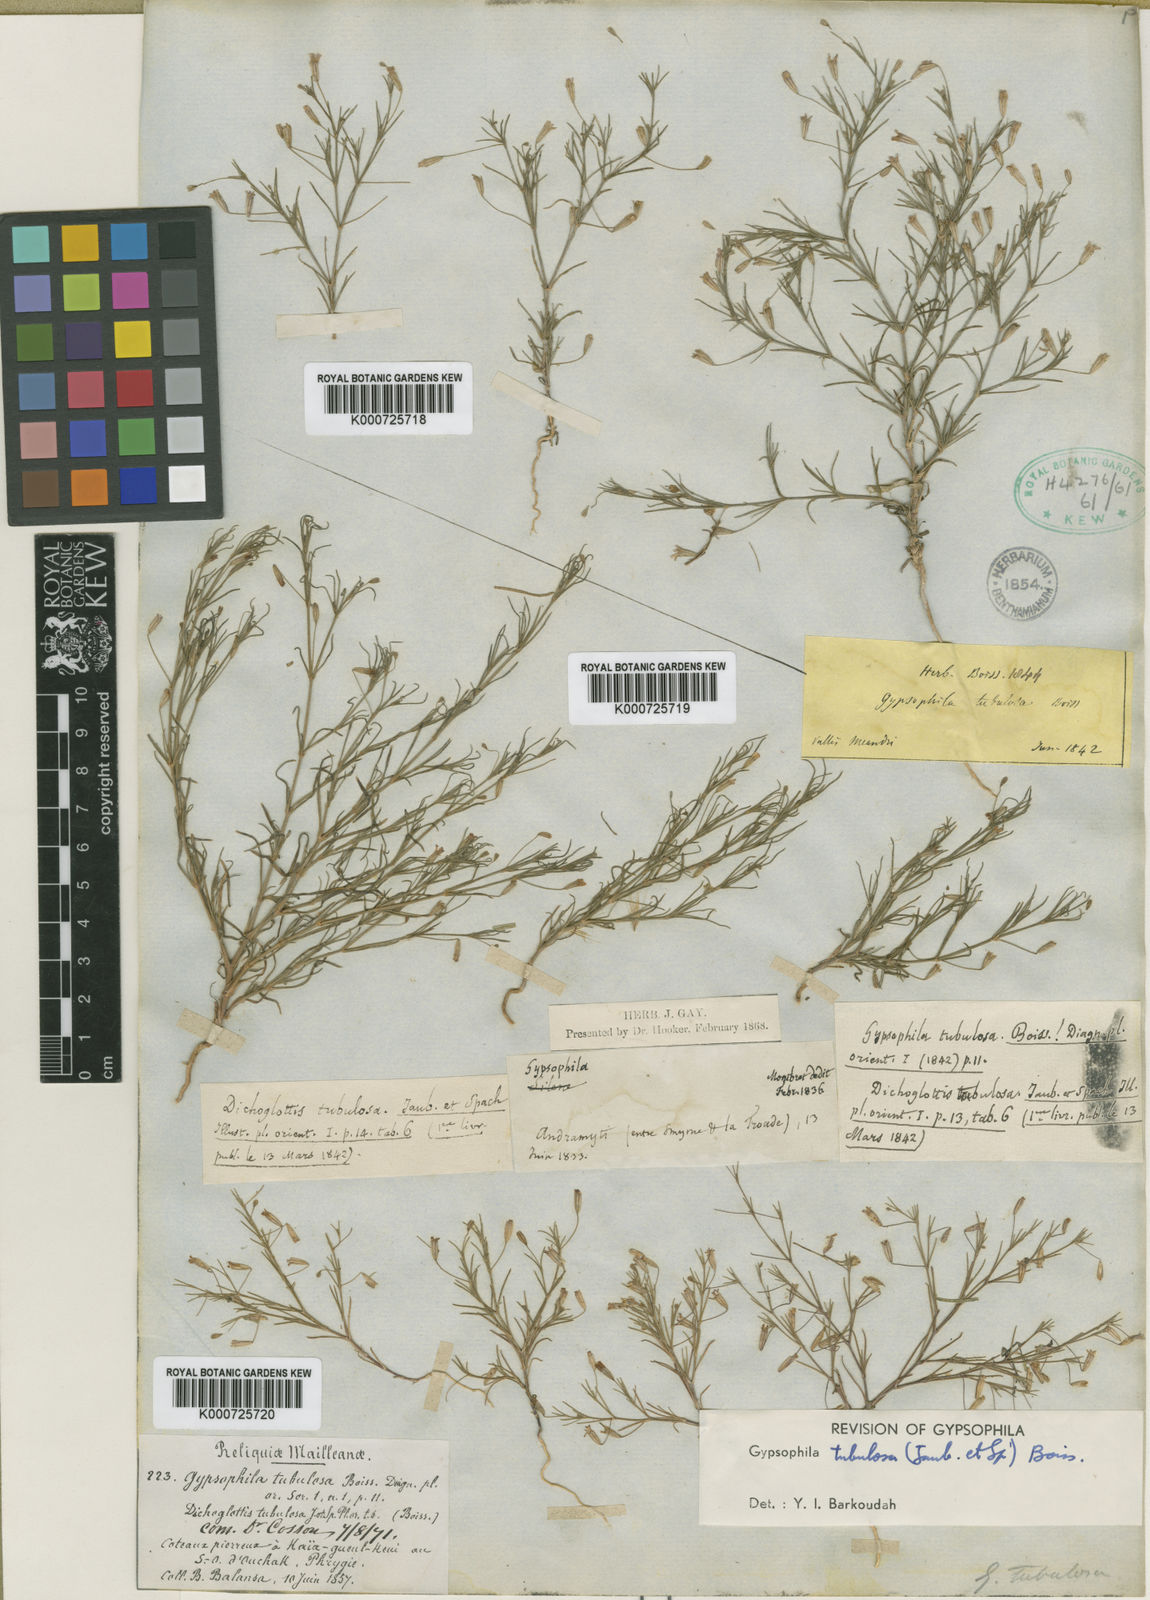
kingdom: Plantae
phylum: Tracheophyta
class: Magnoliopsida
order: Caryophyllales
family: Caryophyllaceae
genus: Psammophiliella
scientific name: Psammophiliella tubulosa
